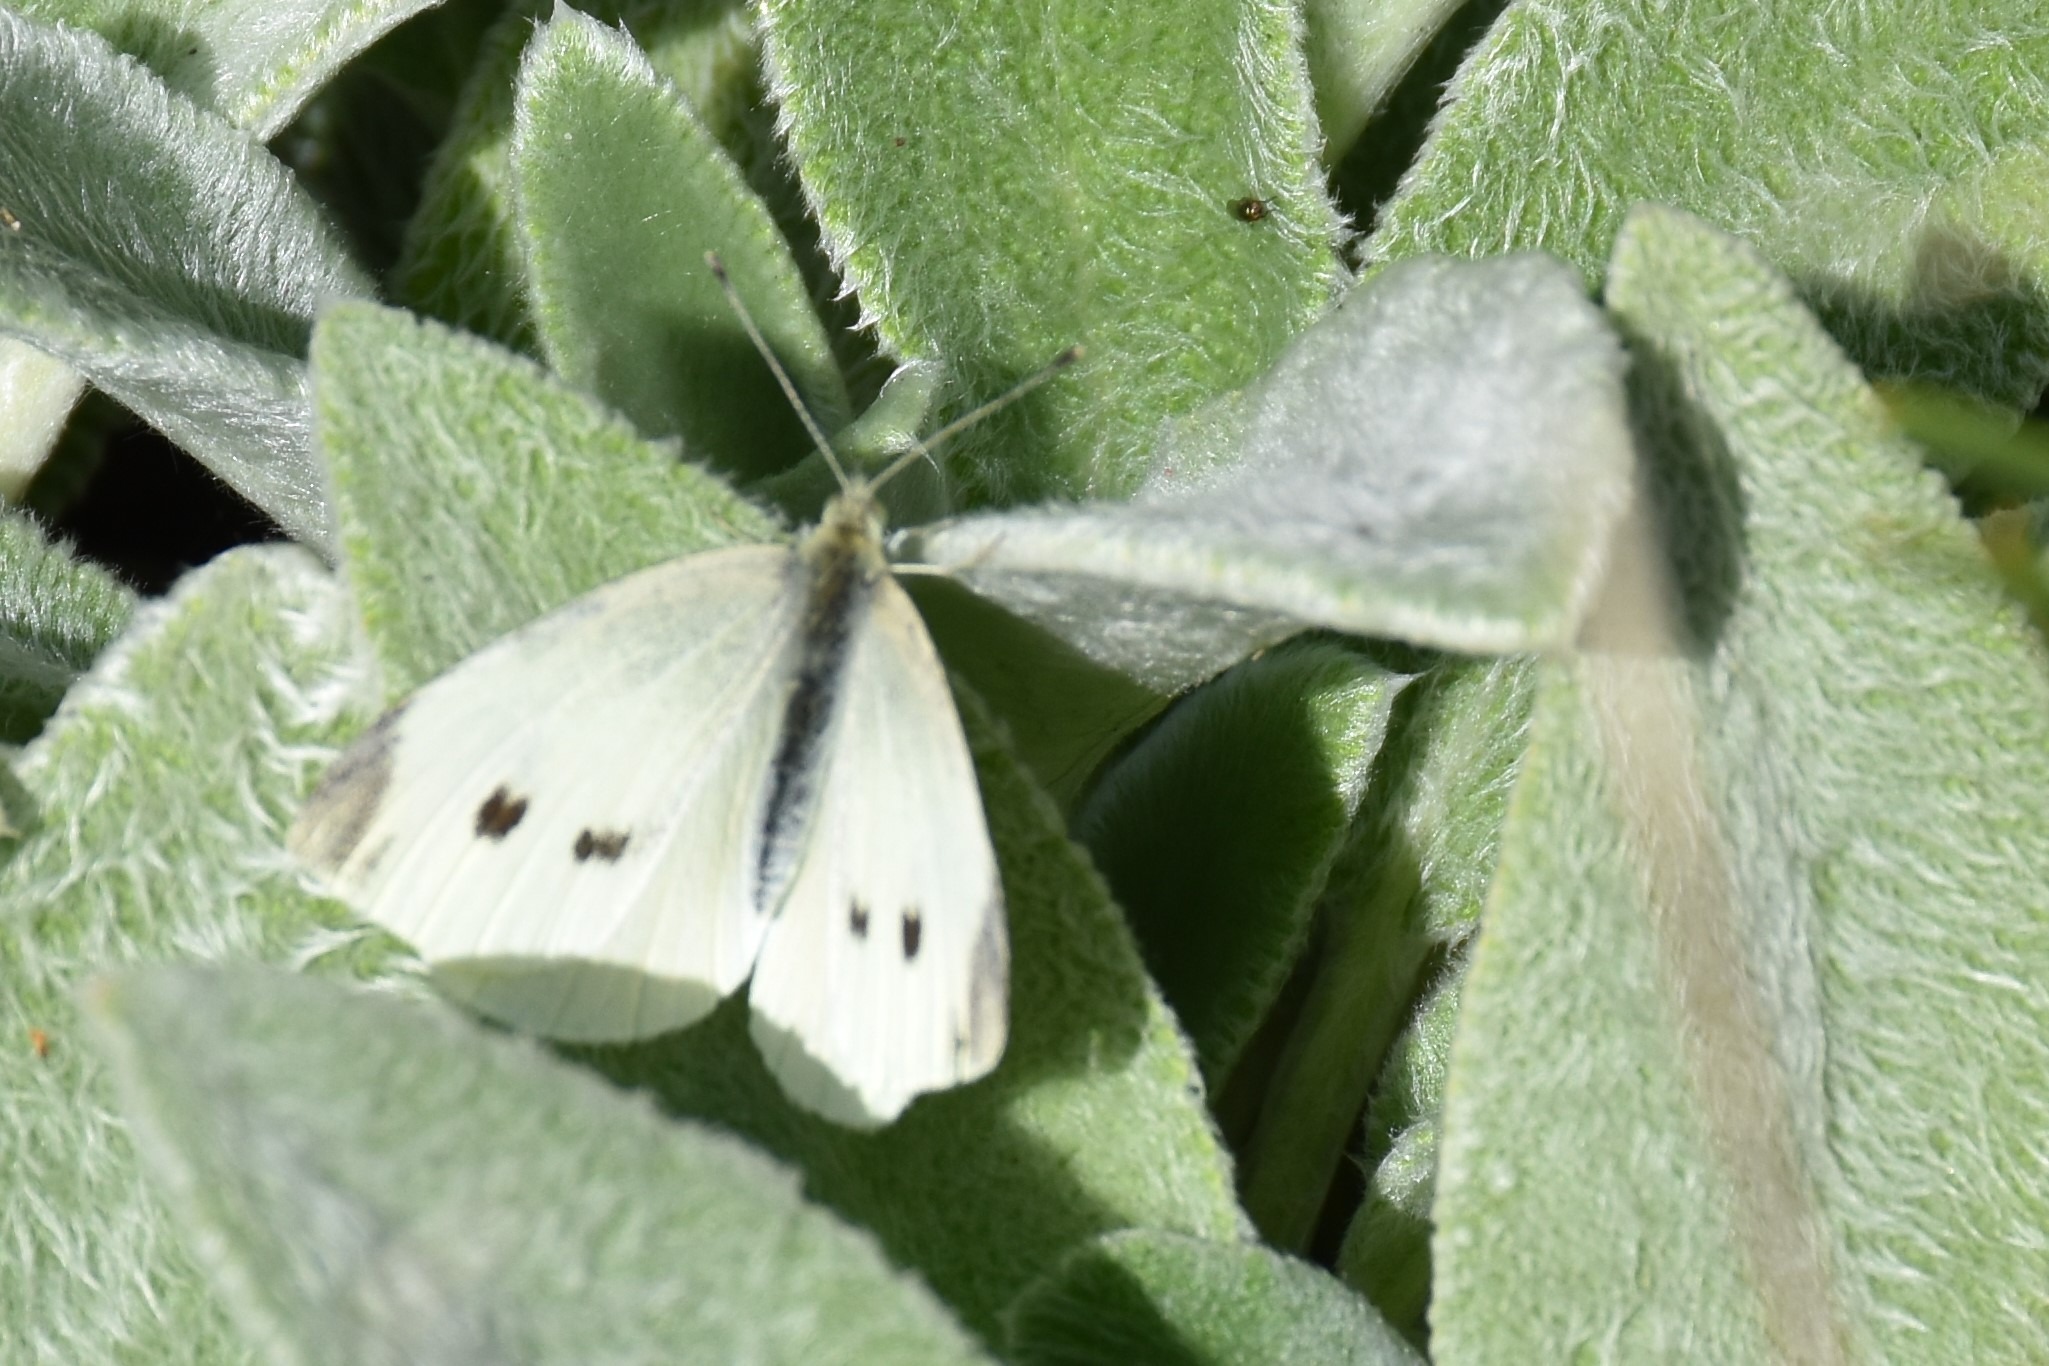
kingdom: Animalia
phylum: Arthropoda
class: Insecta
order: Lepidoptera
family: Pieridae
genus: Pieris
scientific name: Pieris rapae
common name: Lille kålsommerfugl
